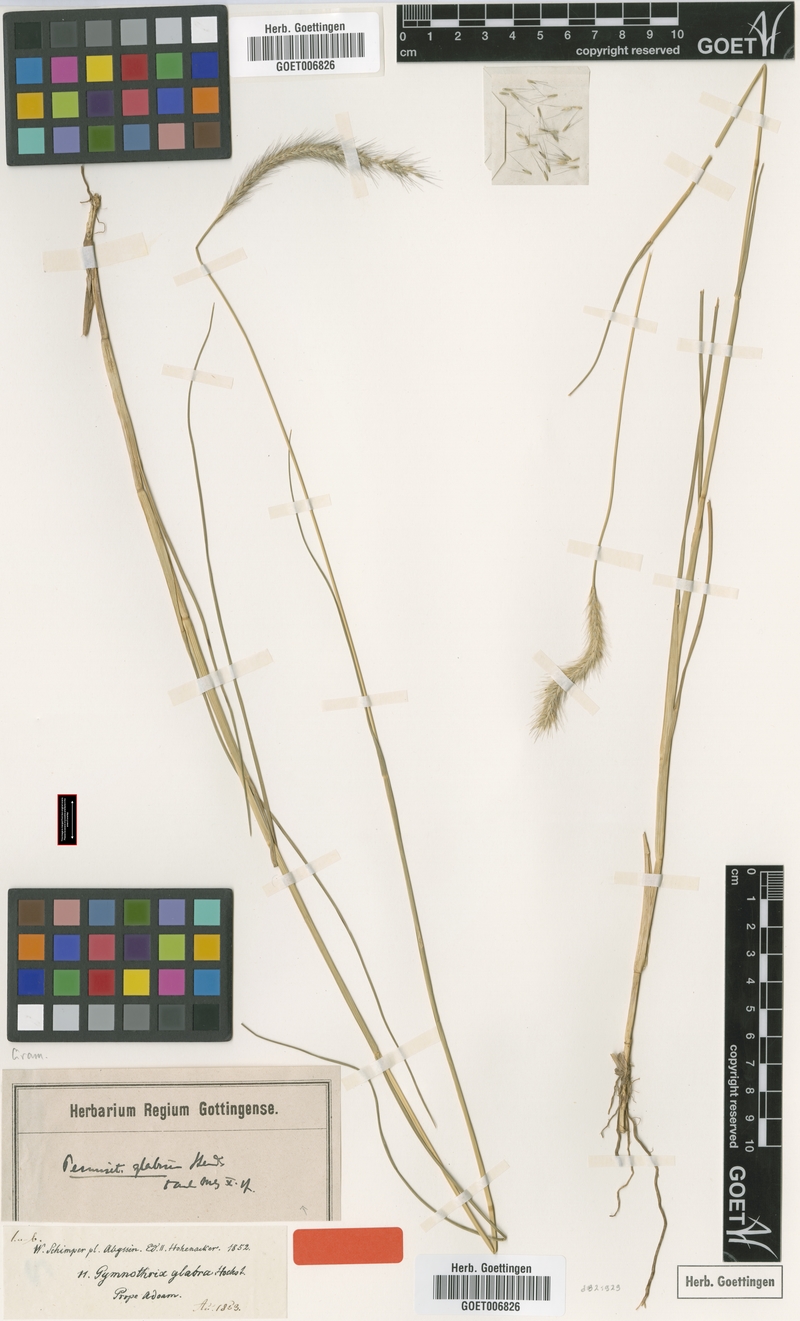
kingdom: Plantae
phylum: Tracheophyta
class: Liliopsida
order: Poales
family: Poaceae
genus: Cenchrus
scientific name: Cenchrus geniculatus
